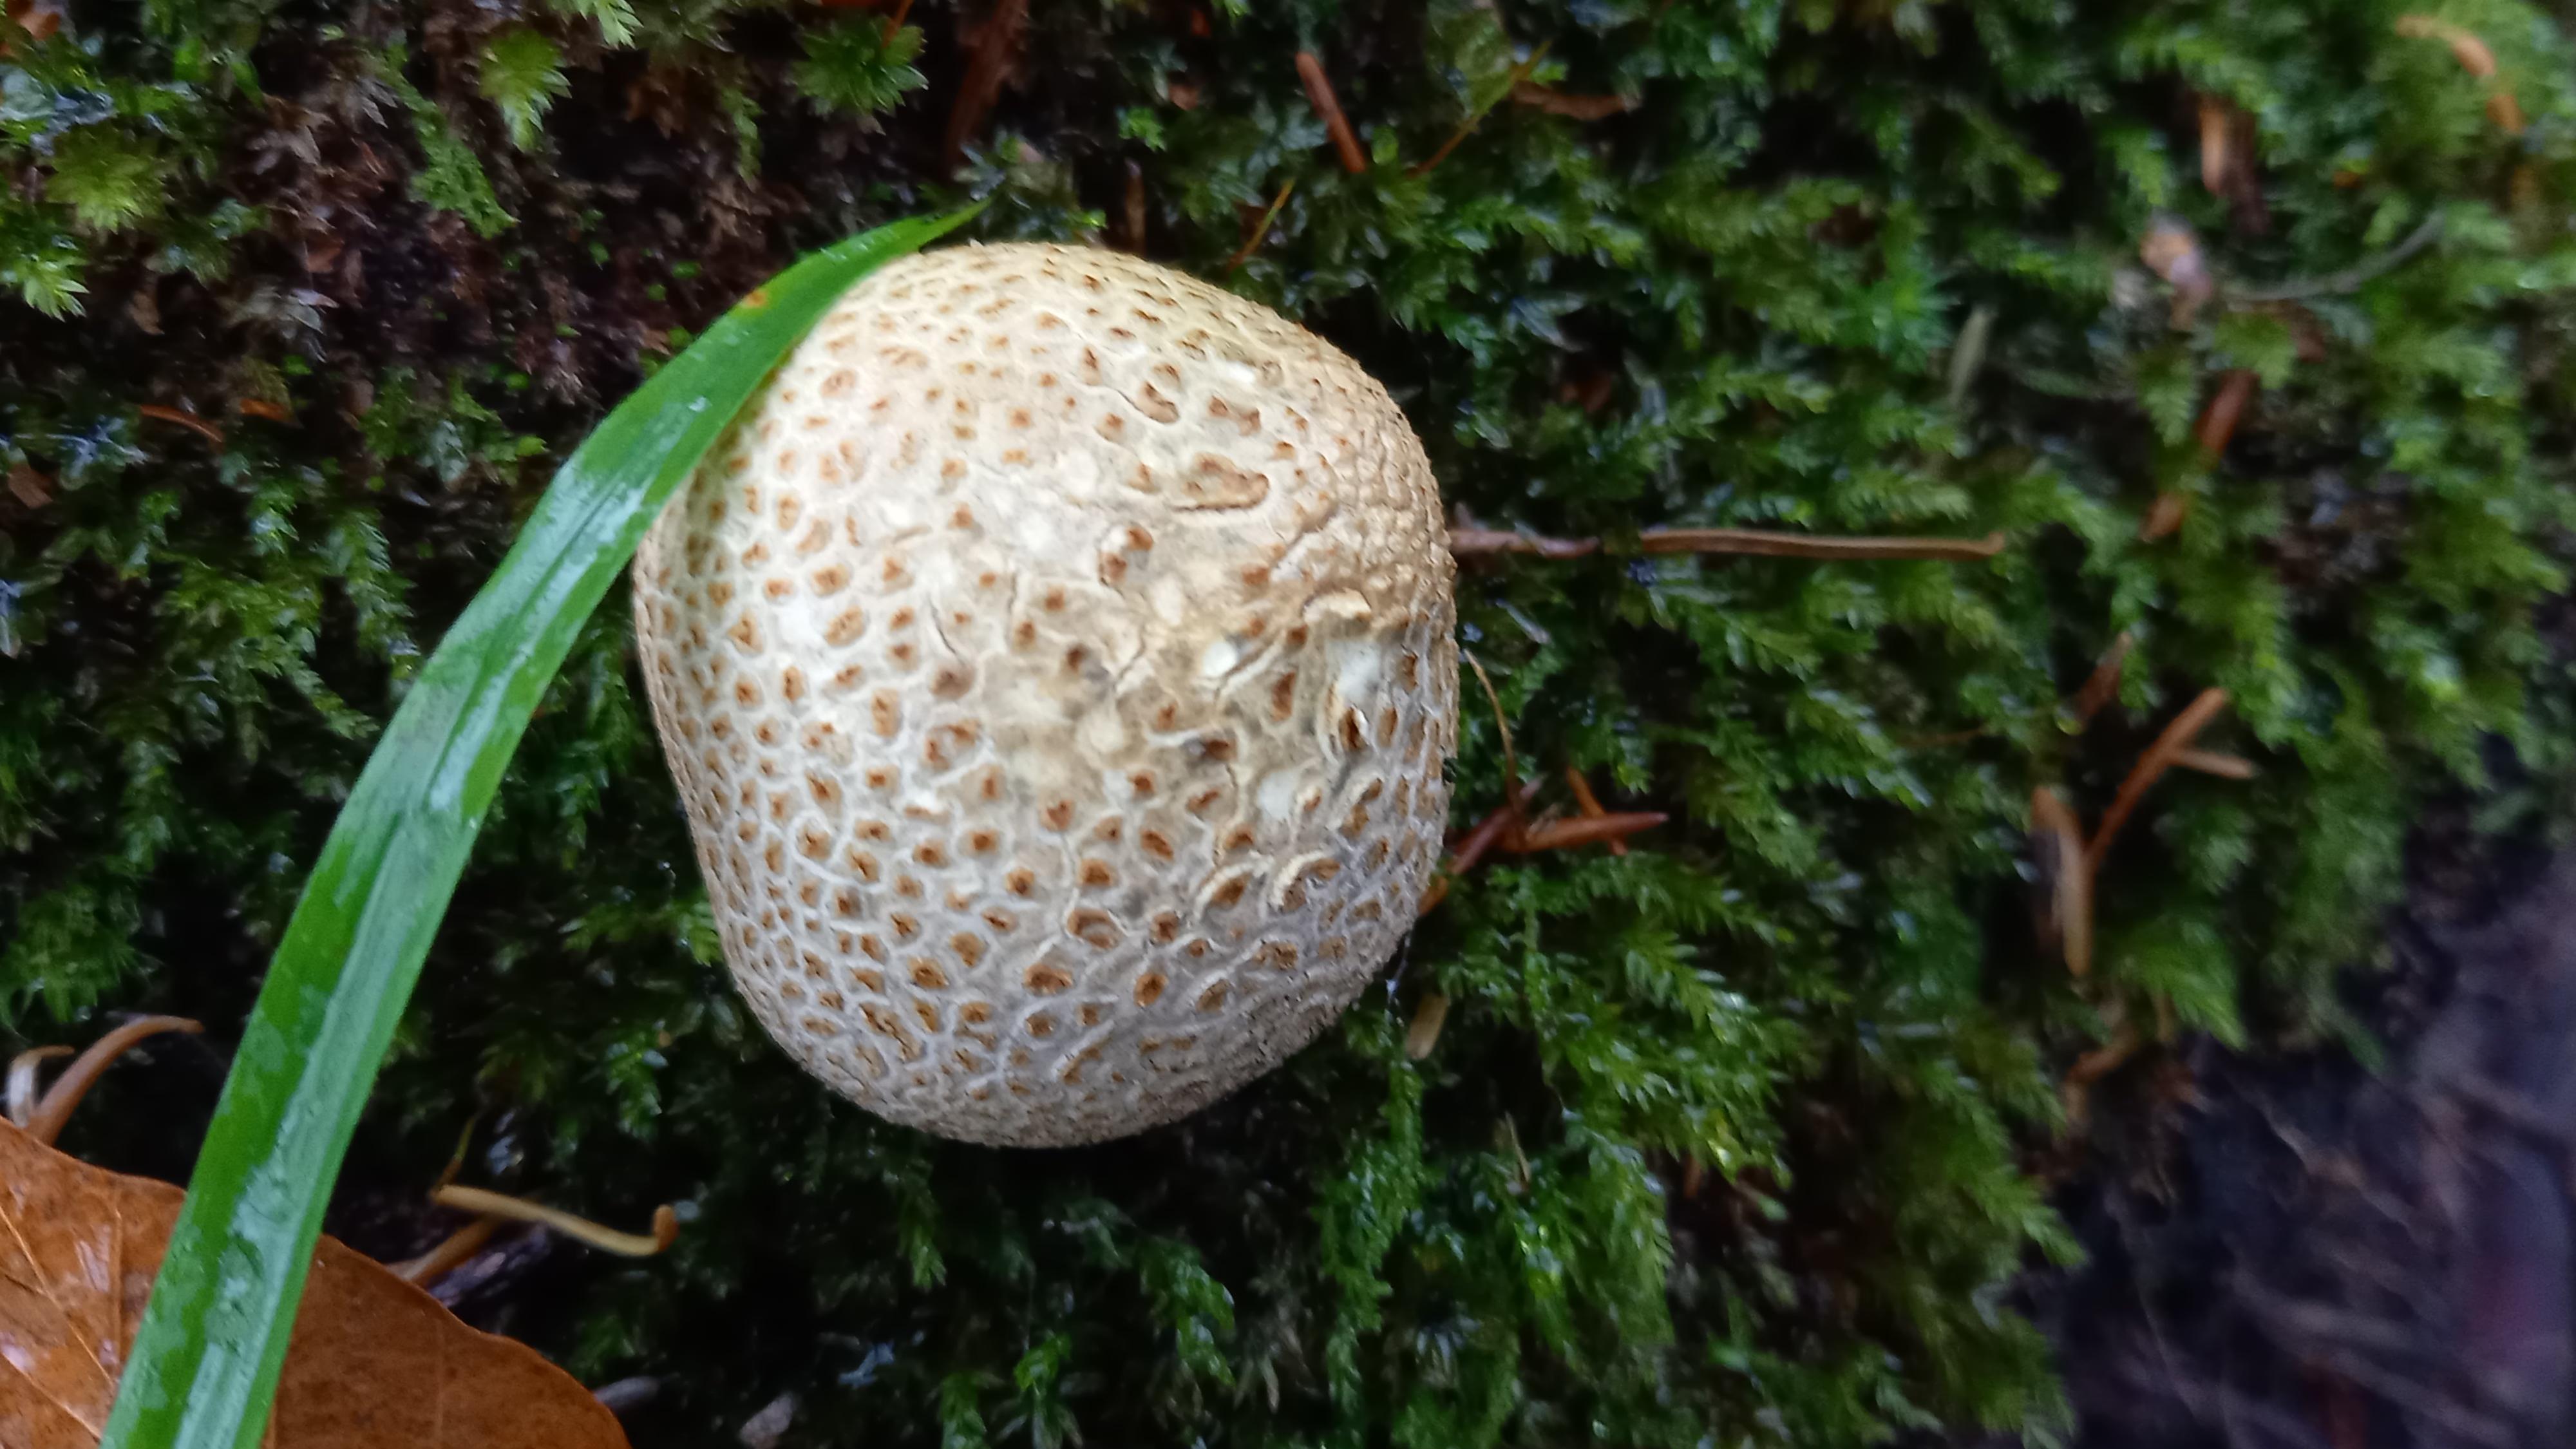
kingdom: Fungi
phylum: Basidiomycota
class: Agaricomycetes
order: Boletales
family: Sclerodermataceae
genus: Scleroderma
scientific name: Scleroderma citrinum
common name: almindelig bruskbold
